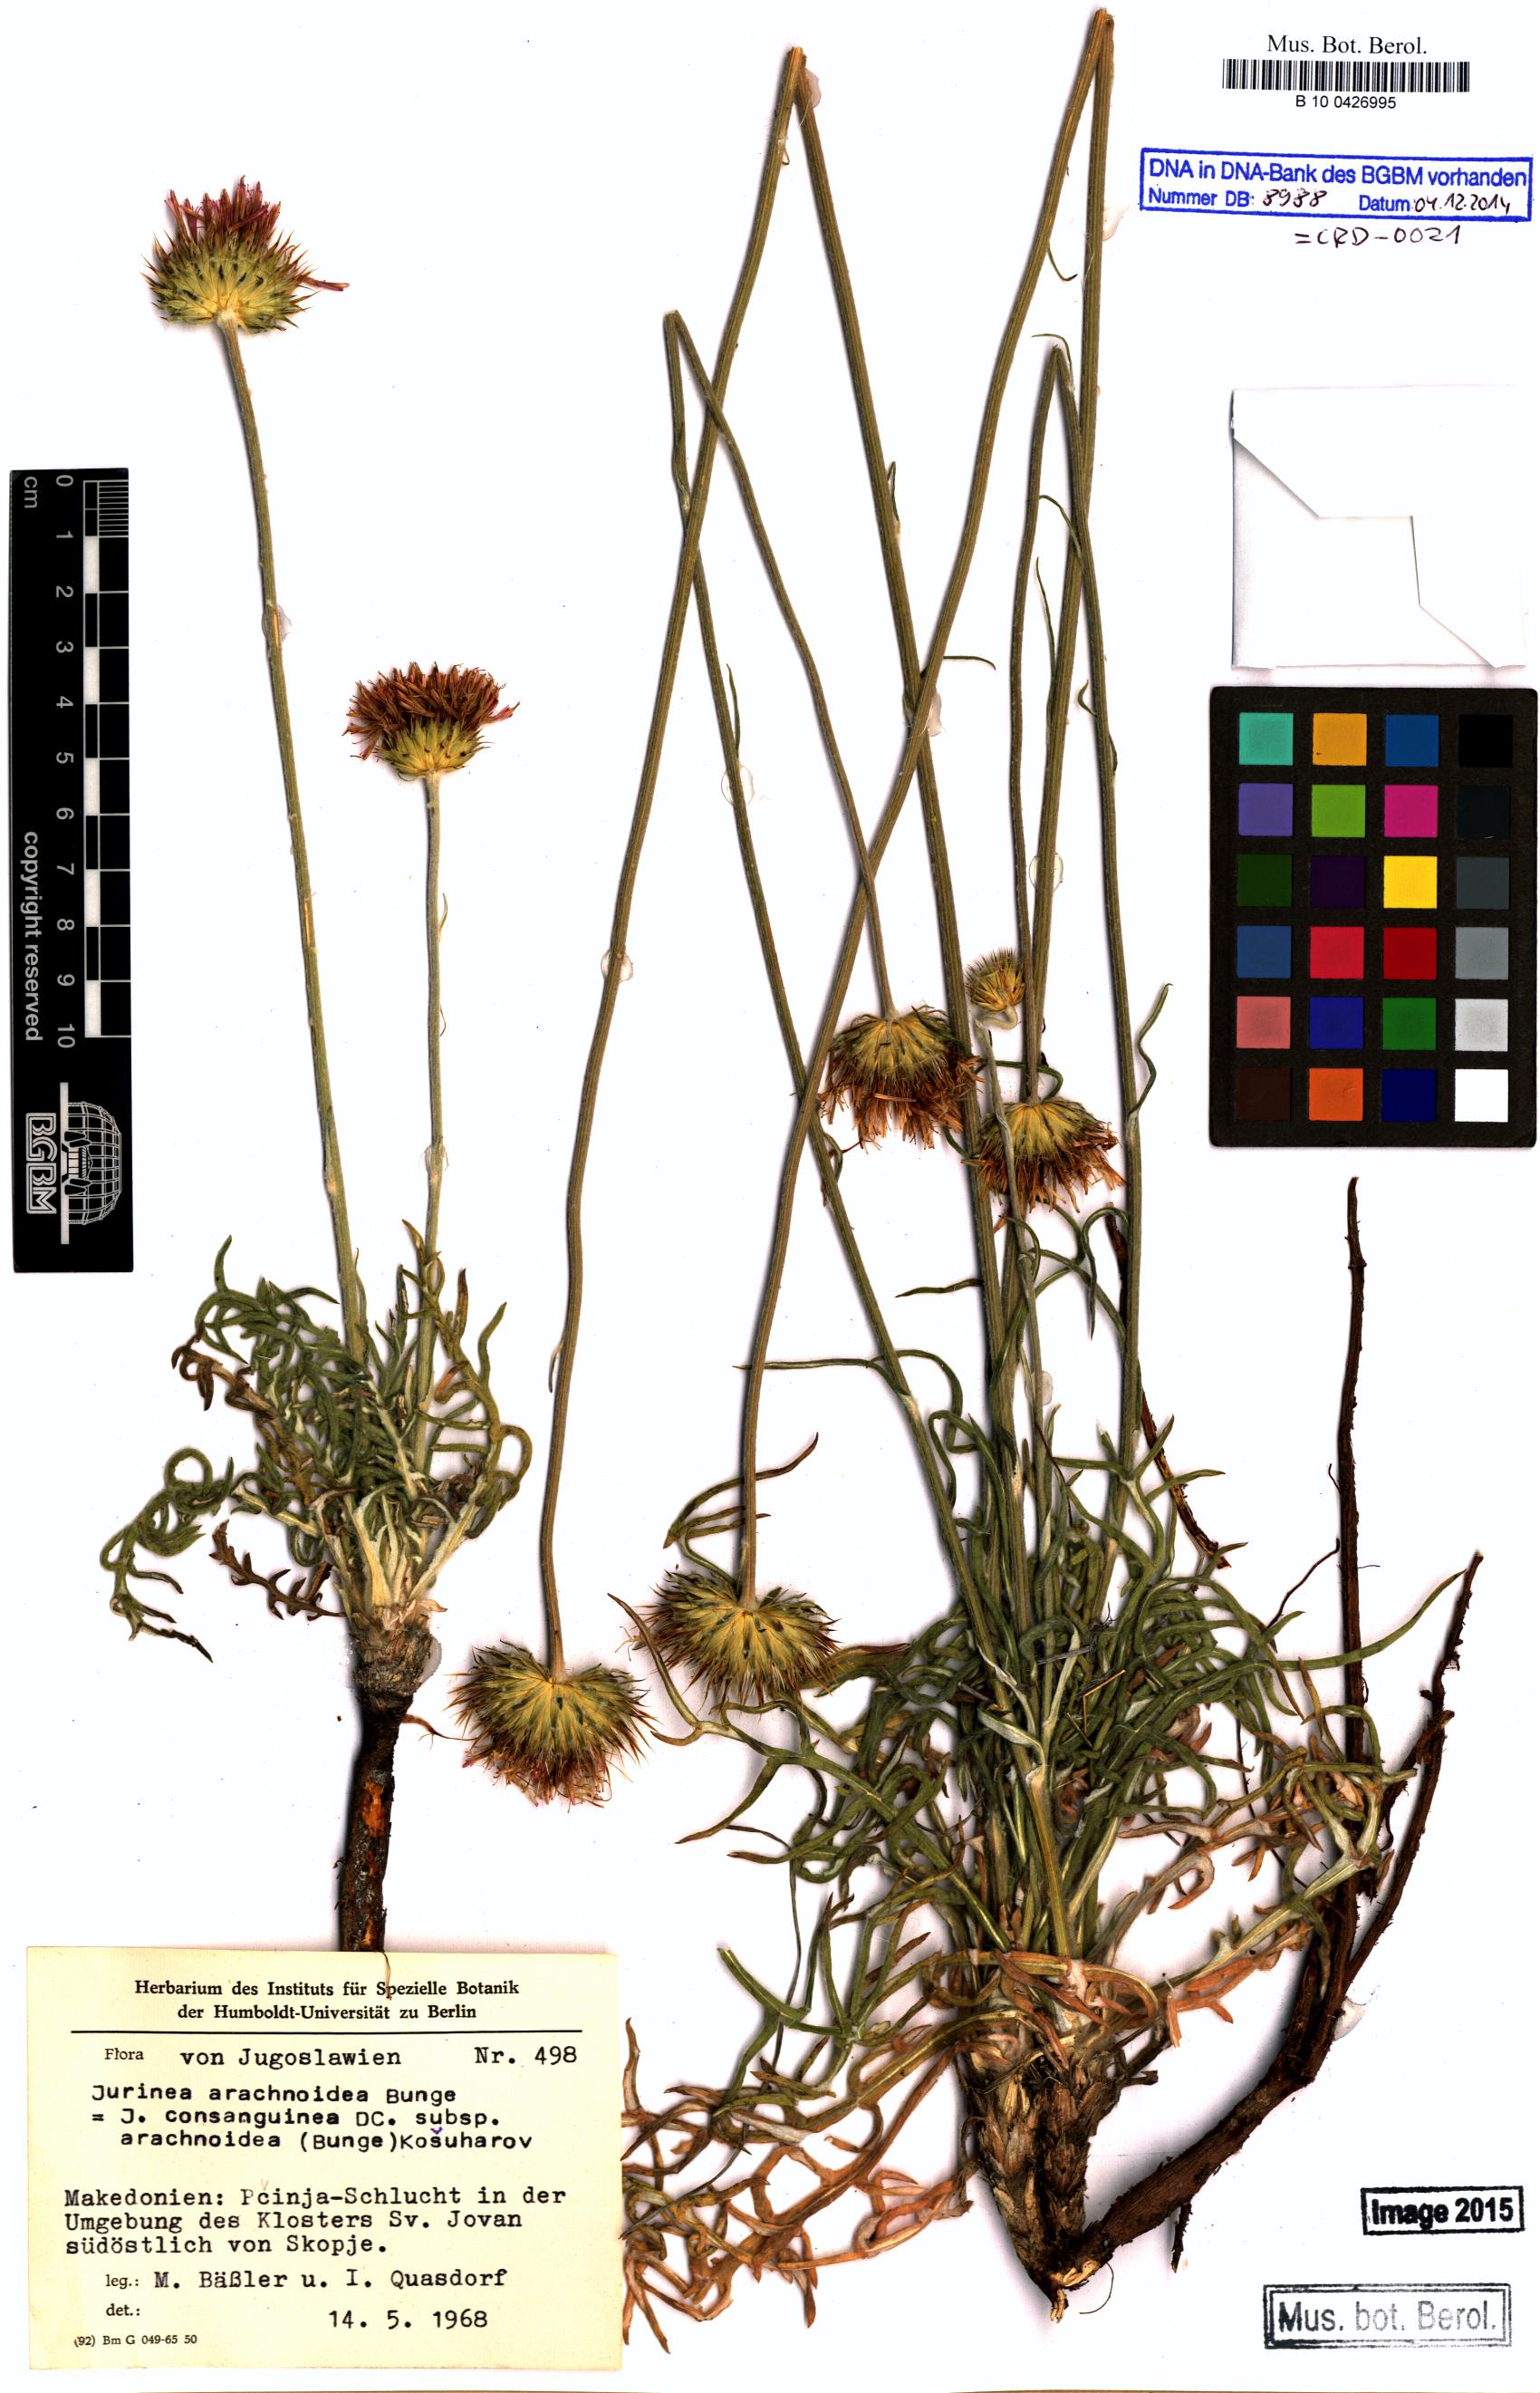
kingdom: Plantae
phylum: Tracheophyta
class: Magnoliopsida
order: Asterales
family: Asteraceae
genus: Jurinea
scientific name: Jurinea arachnoidea
